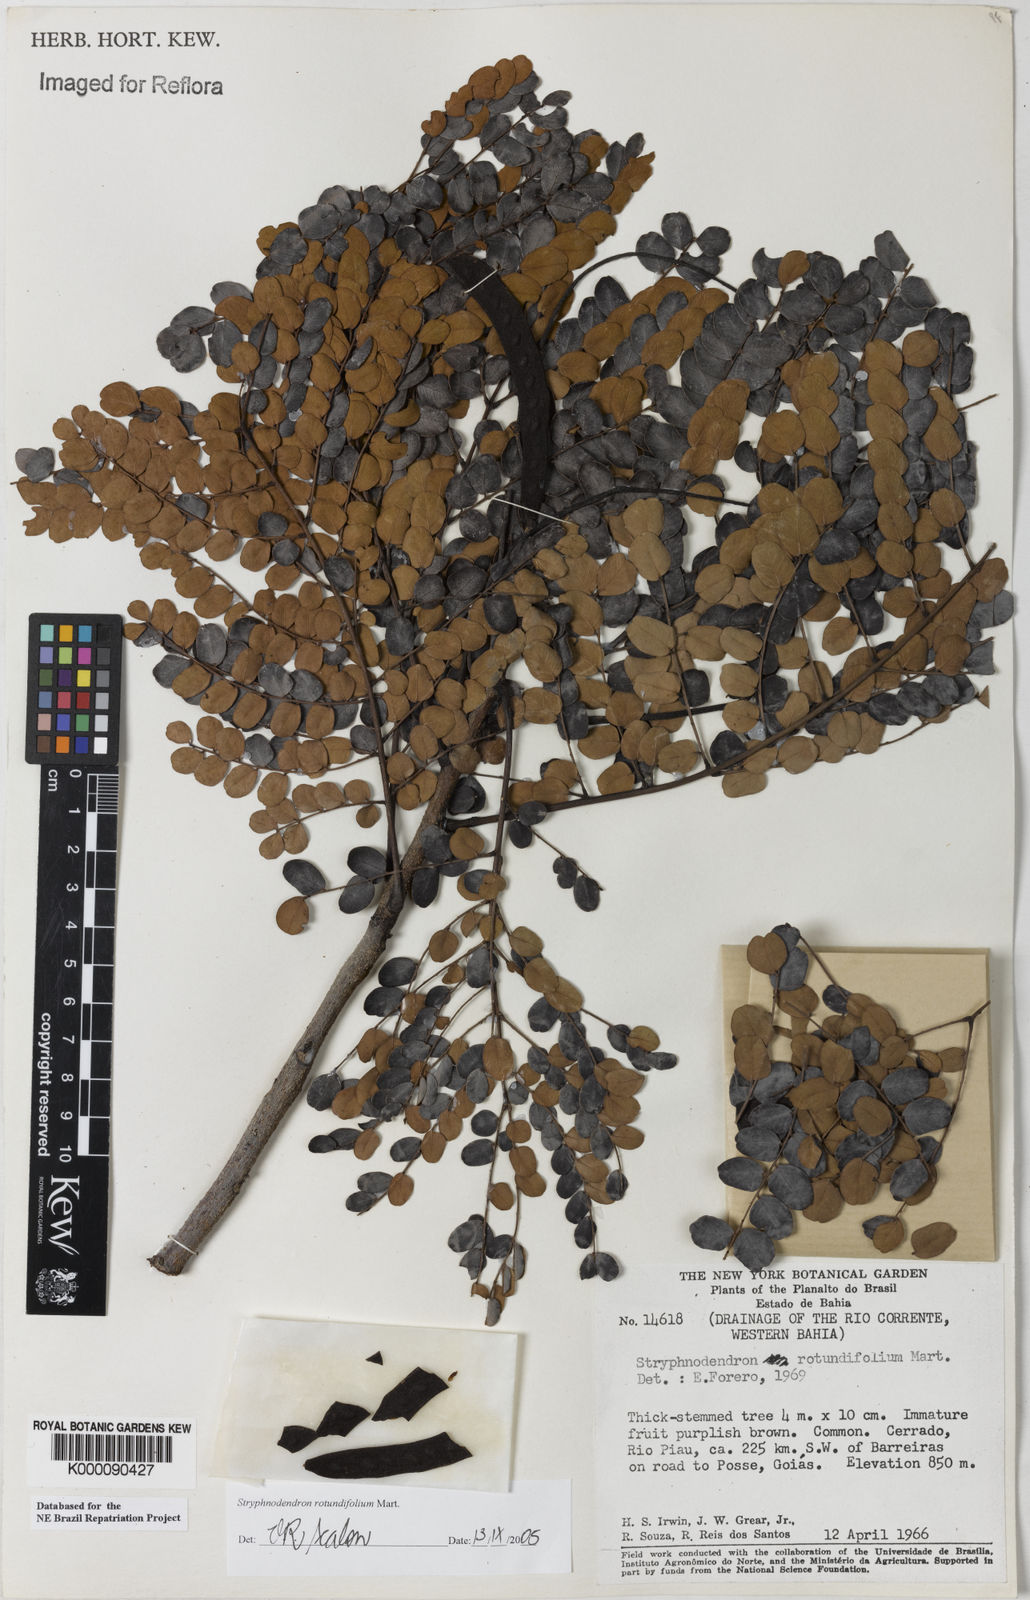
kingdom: Plantae
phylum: Tracheophyta
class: Magnoliopsida
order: Fabales
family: Fabaceae
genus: Stryphnodendron
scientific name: Stryphnodendron rotundifolium
